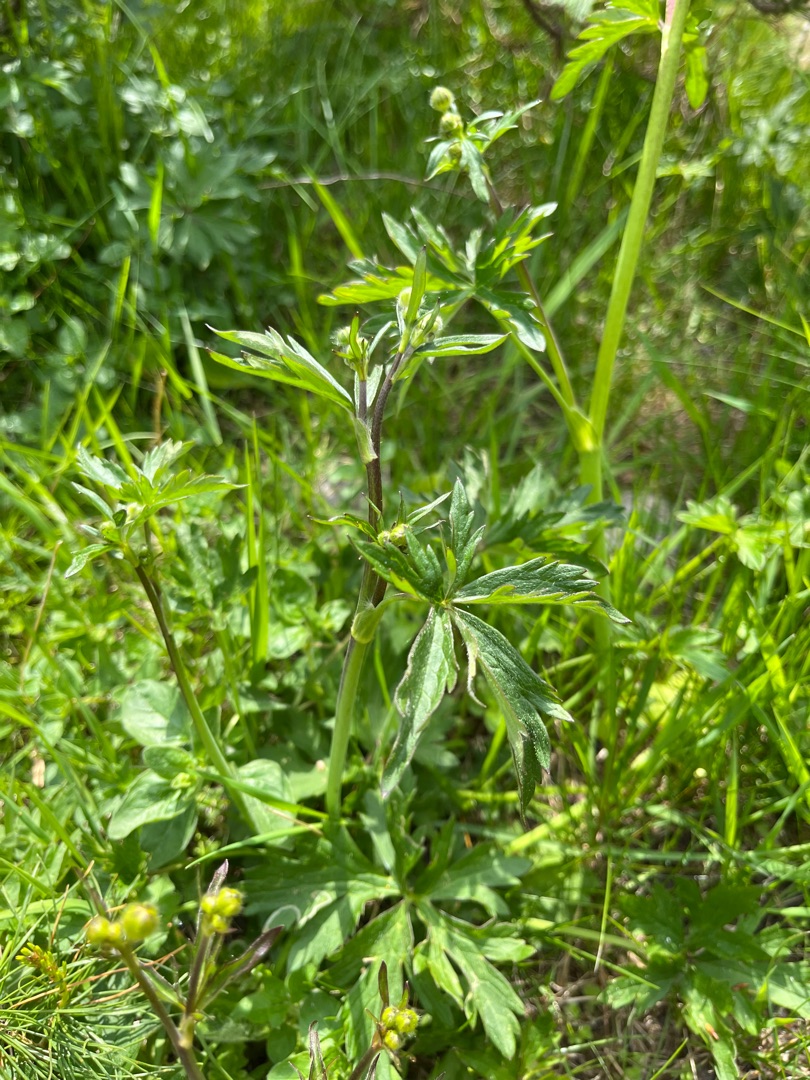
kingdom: Plantae
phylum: Tracheophyta
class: Magnoliopsida
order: Ranunculales
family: Ranunculaceae
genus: Ranunculus
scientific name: Ranunculus acris
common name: Bidende ranunkel
